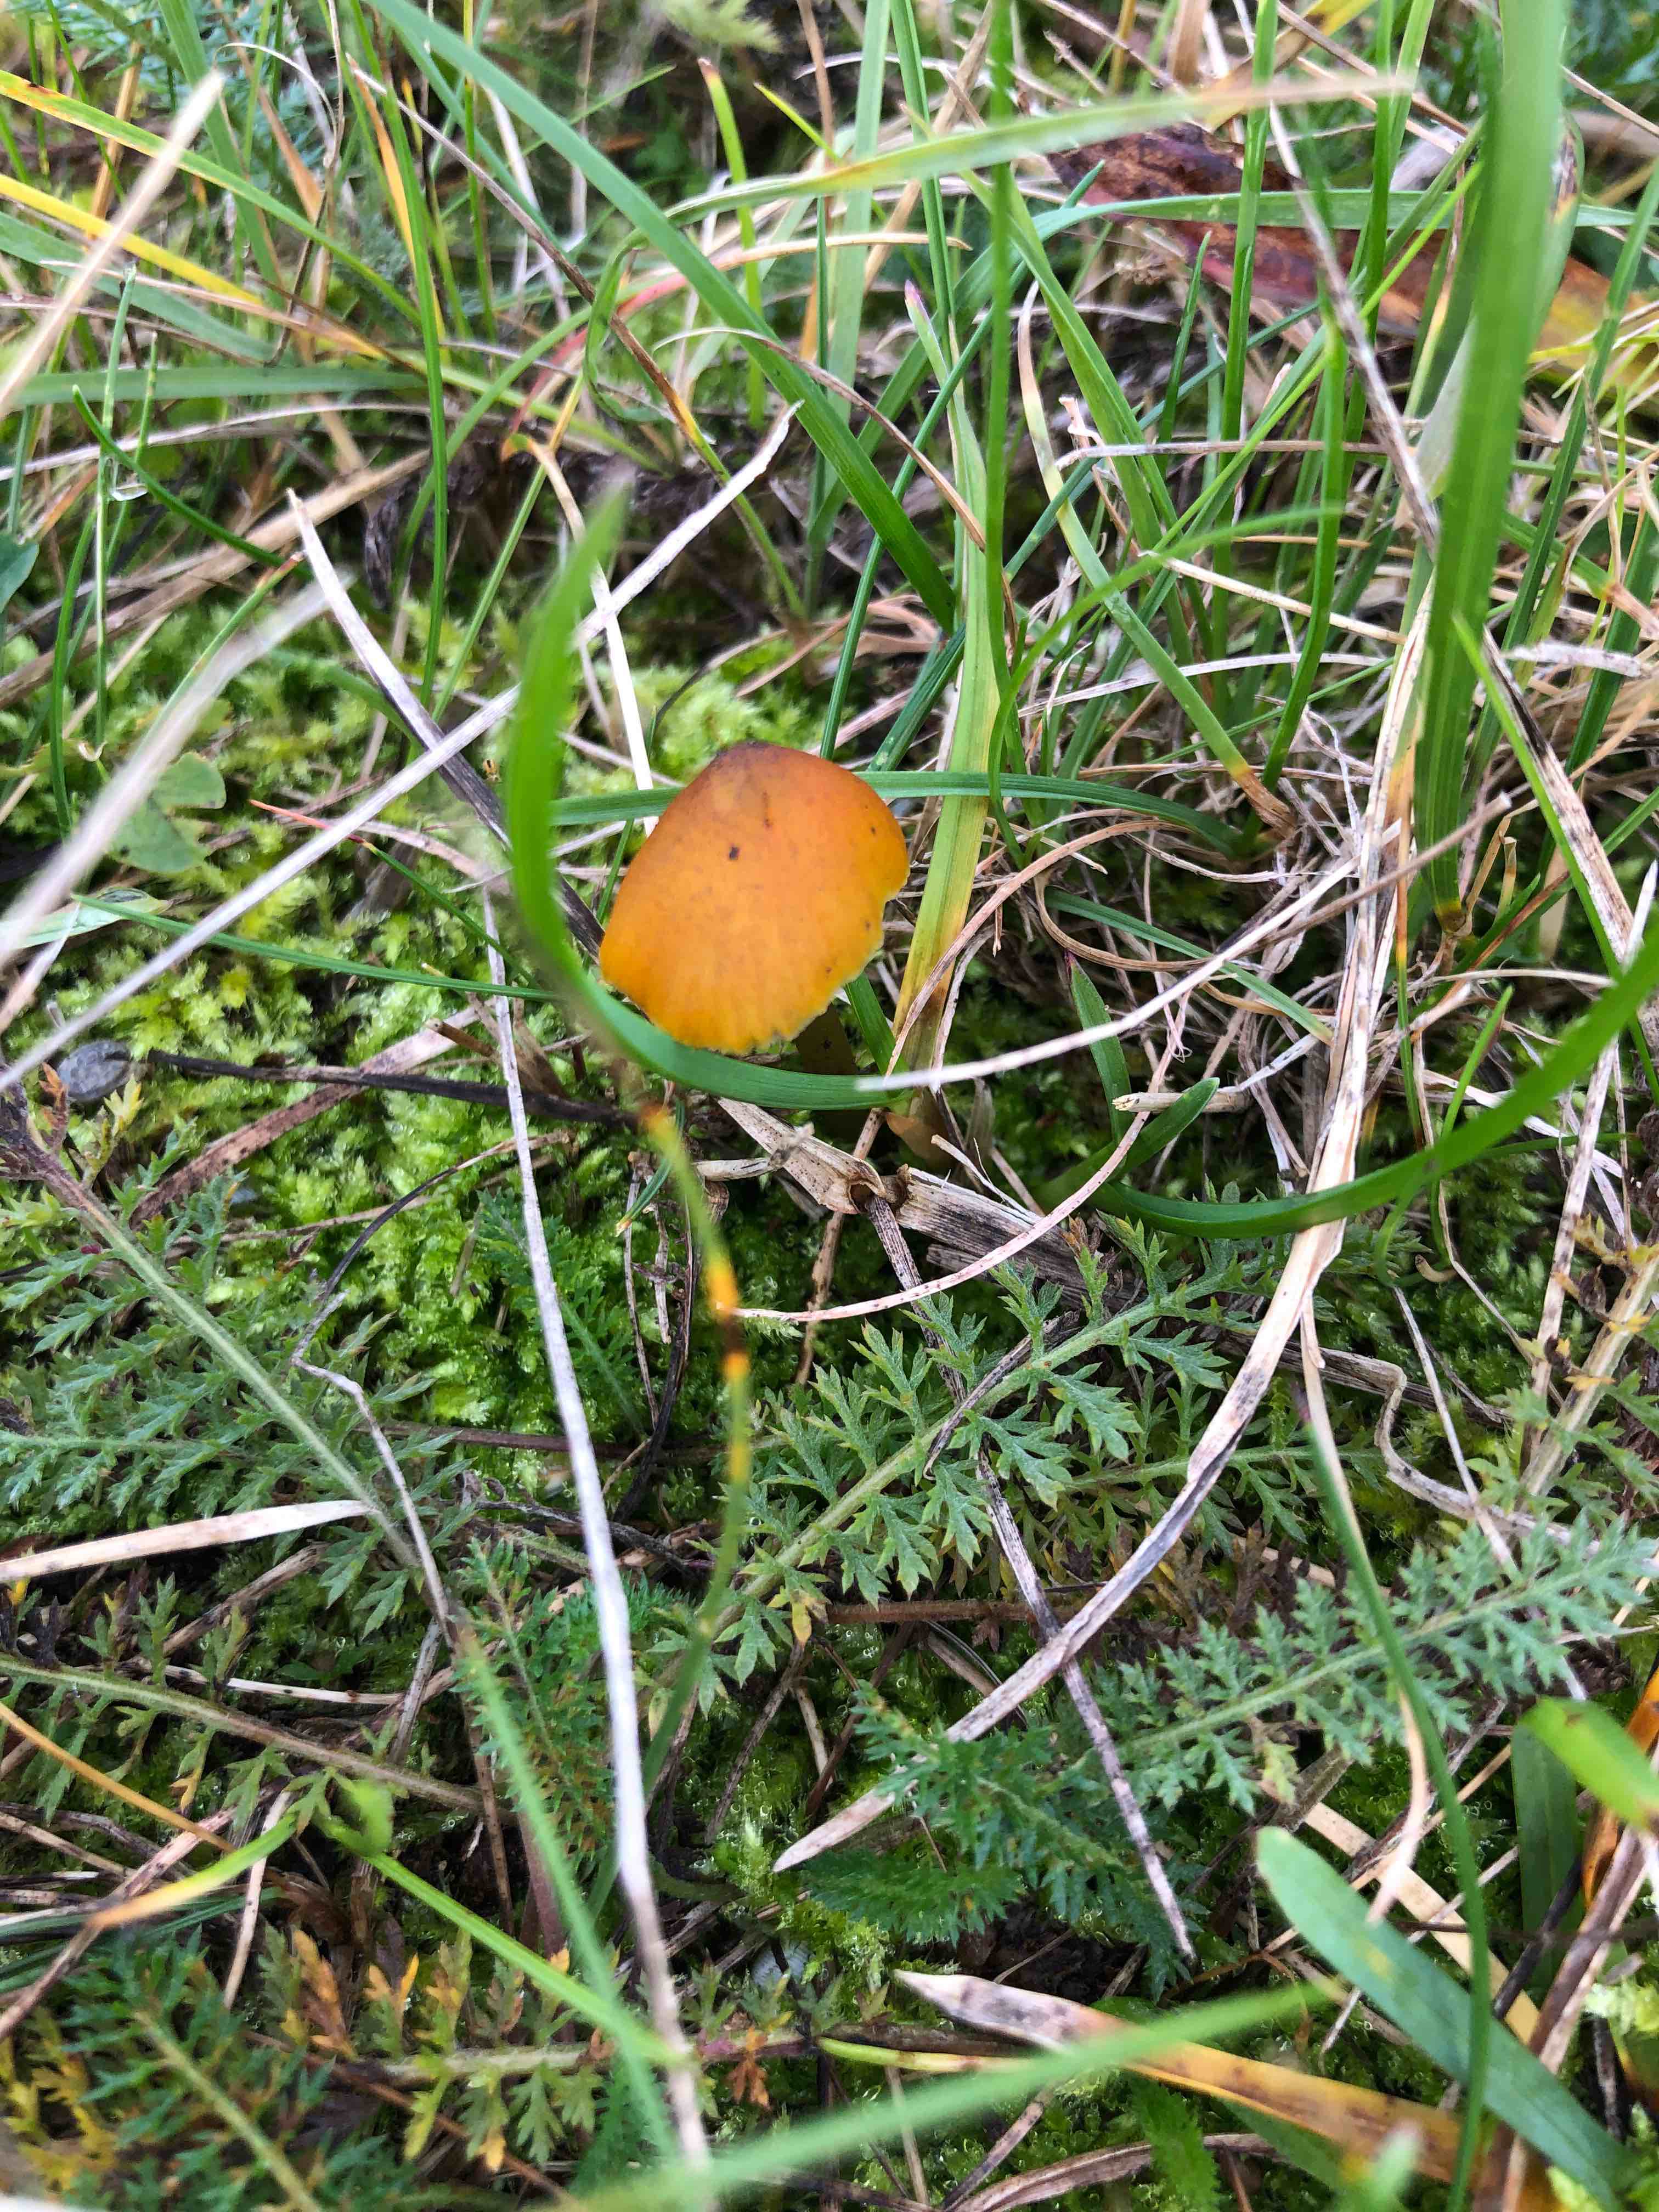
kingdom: Fungi
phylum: Basidiomycota
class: Agaricomycetes
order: Agaricales
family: Hygrophoraceae
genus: Hygrocybe
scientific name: Hygrocybe conica
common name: kegle-vokshat
